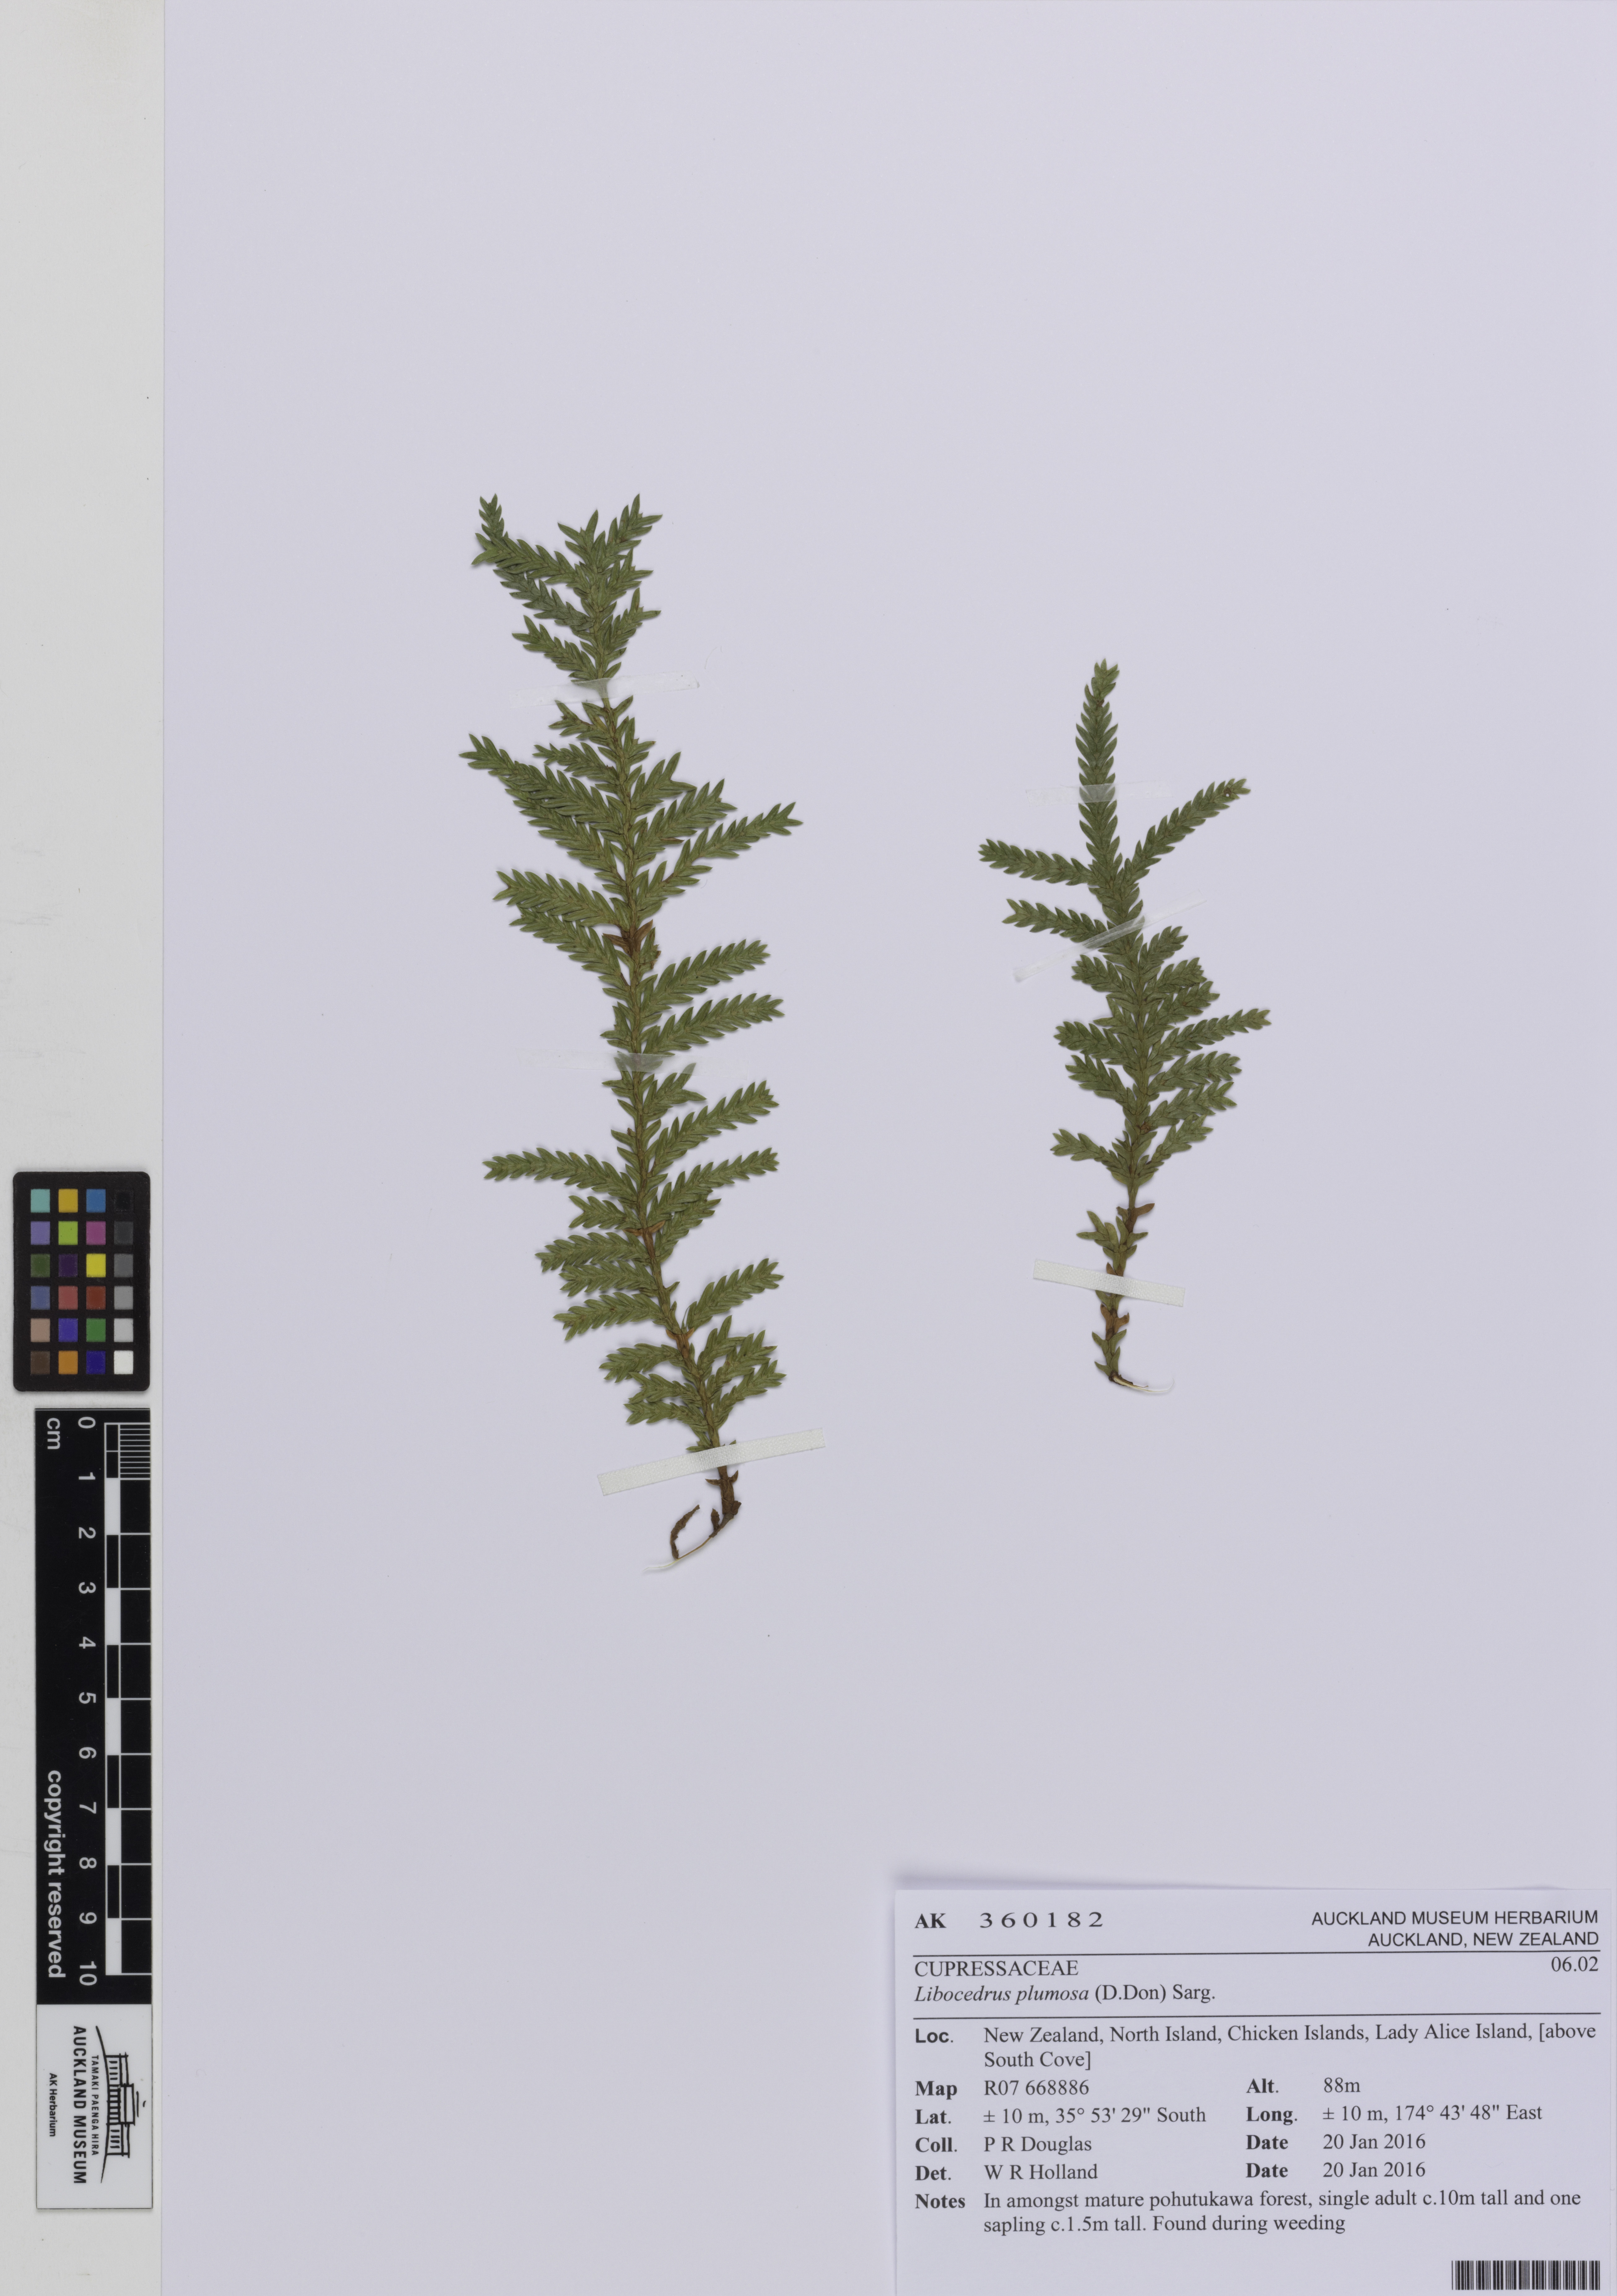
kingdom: Plantae
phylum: Tracheophyta
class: Pinopsida
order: Pinales
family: Cupressaceae
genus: Libocedrus
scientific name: Libocedrus plumosa
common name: New zealand cedar
